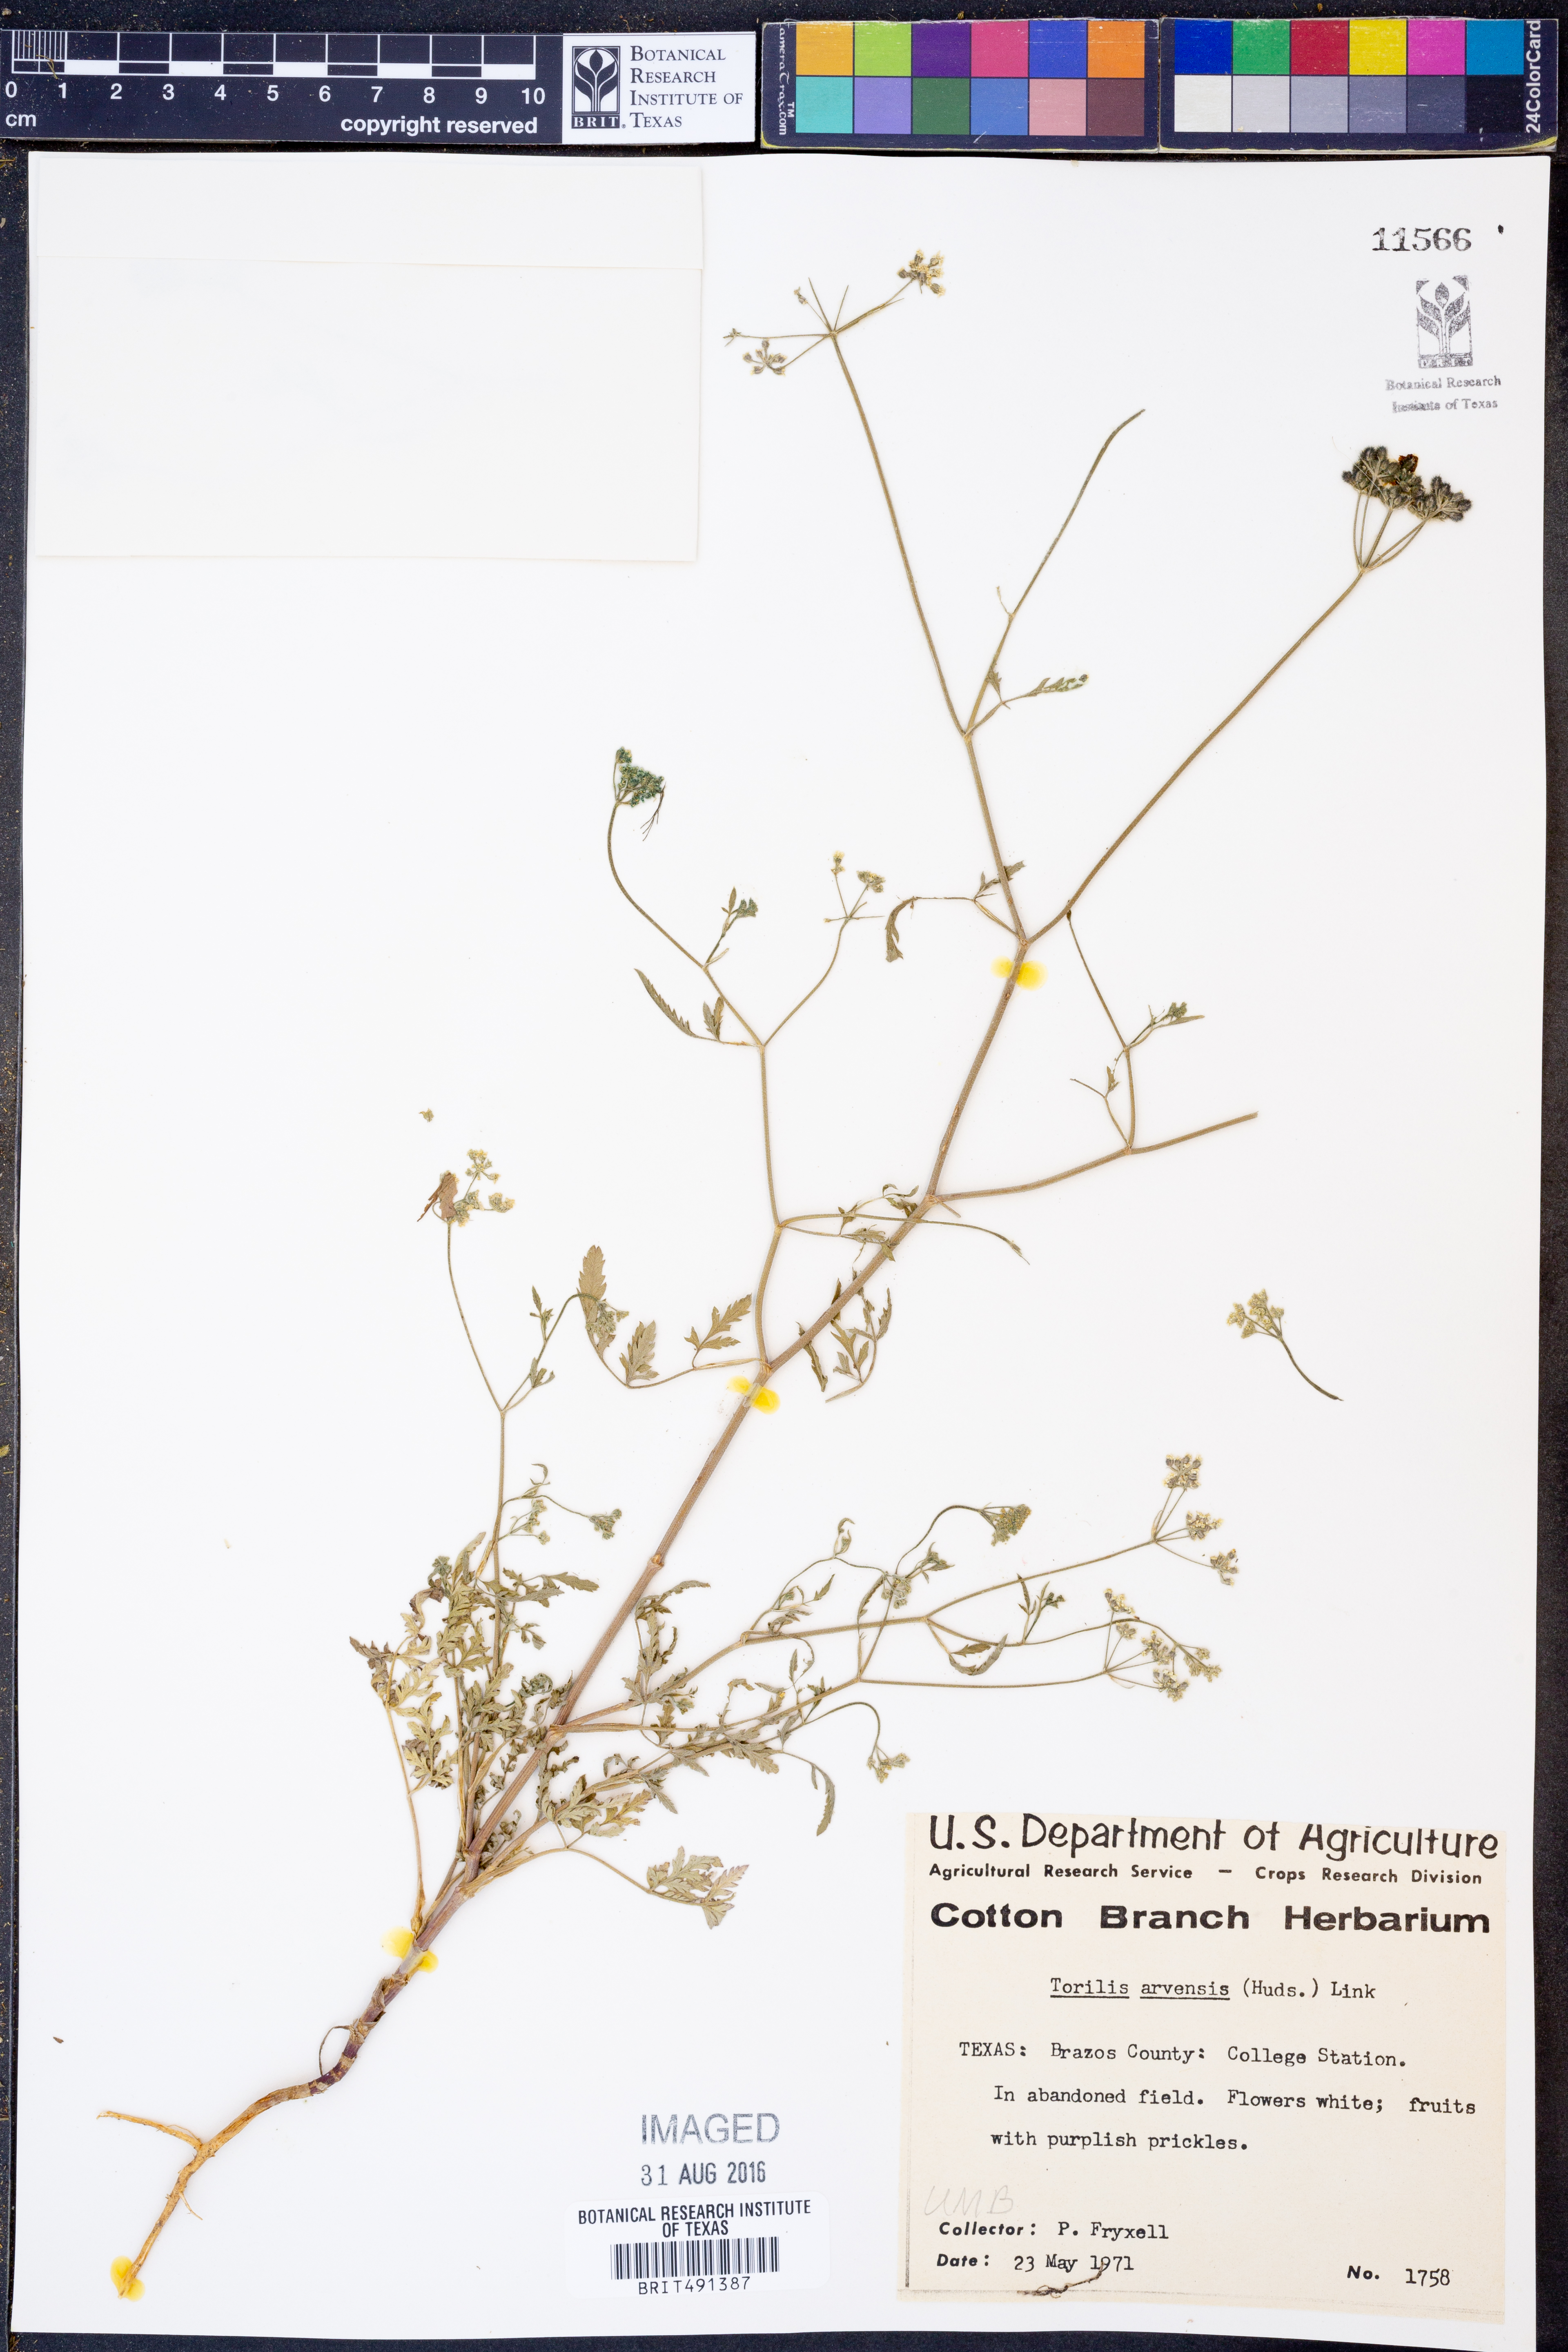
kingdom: Plantae
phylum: Tracheophyta
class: Magnoliopsida
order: Apiales
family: Apiaceae
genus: Torilis
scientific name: Torilis arvensis
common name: Spreading hedge-parsley
